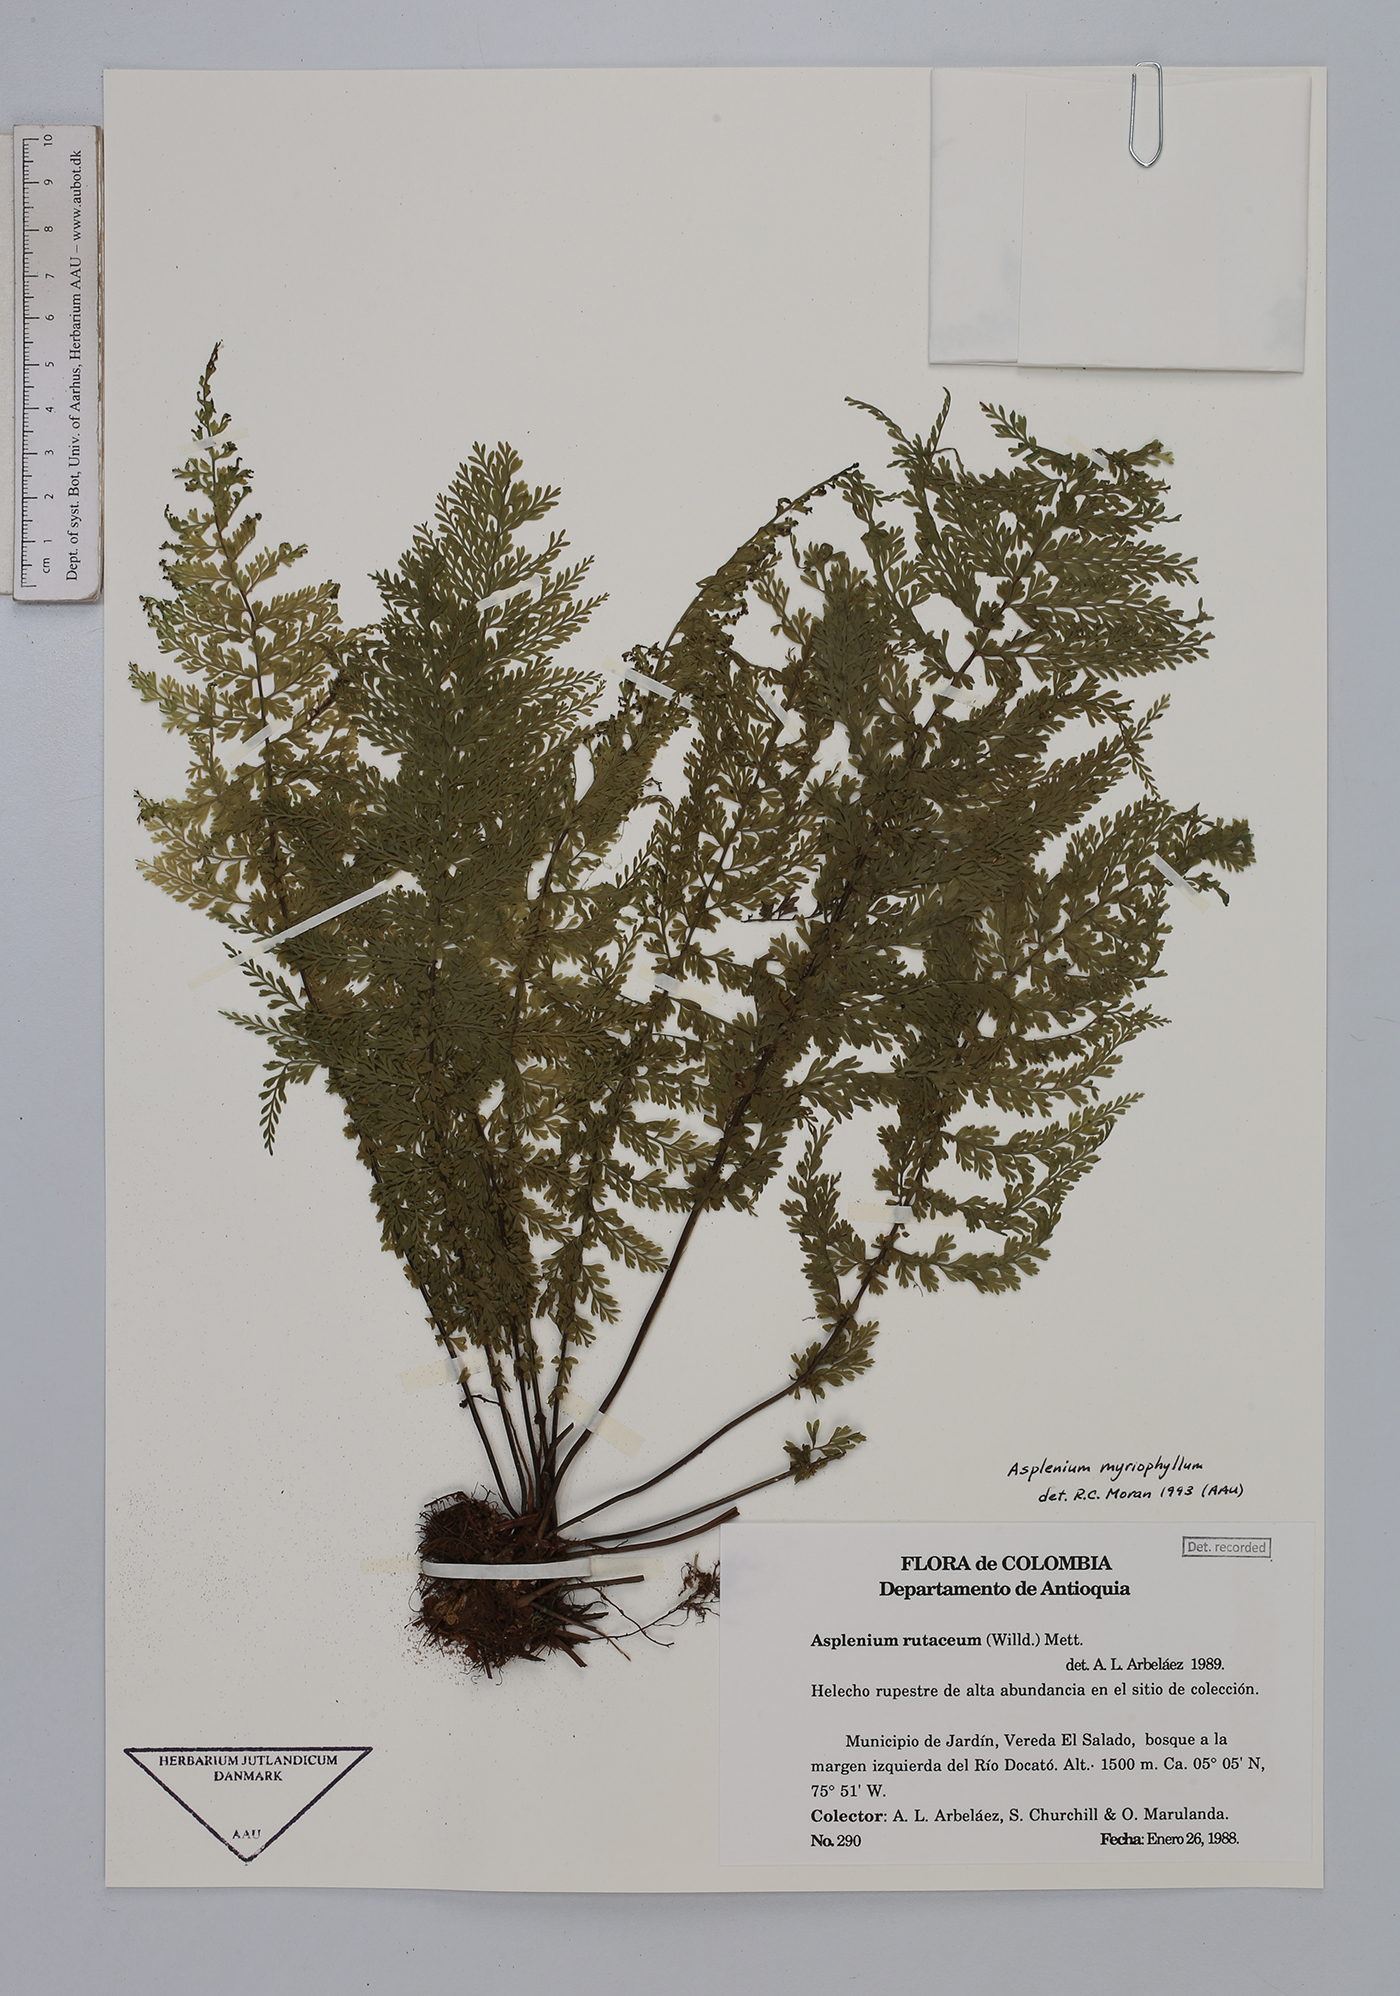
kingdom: Plantae
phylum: Tracheophyta
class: Polypodiopsida
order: Polypodiales
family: Aspleniaceae
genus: Asplenium
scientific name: Asplenium myriophyllum
